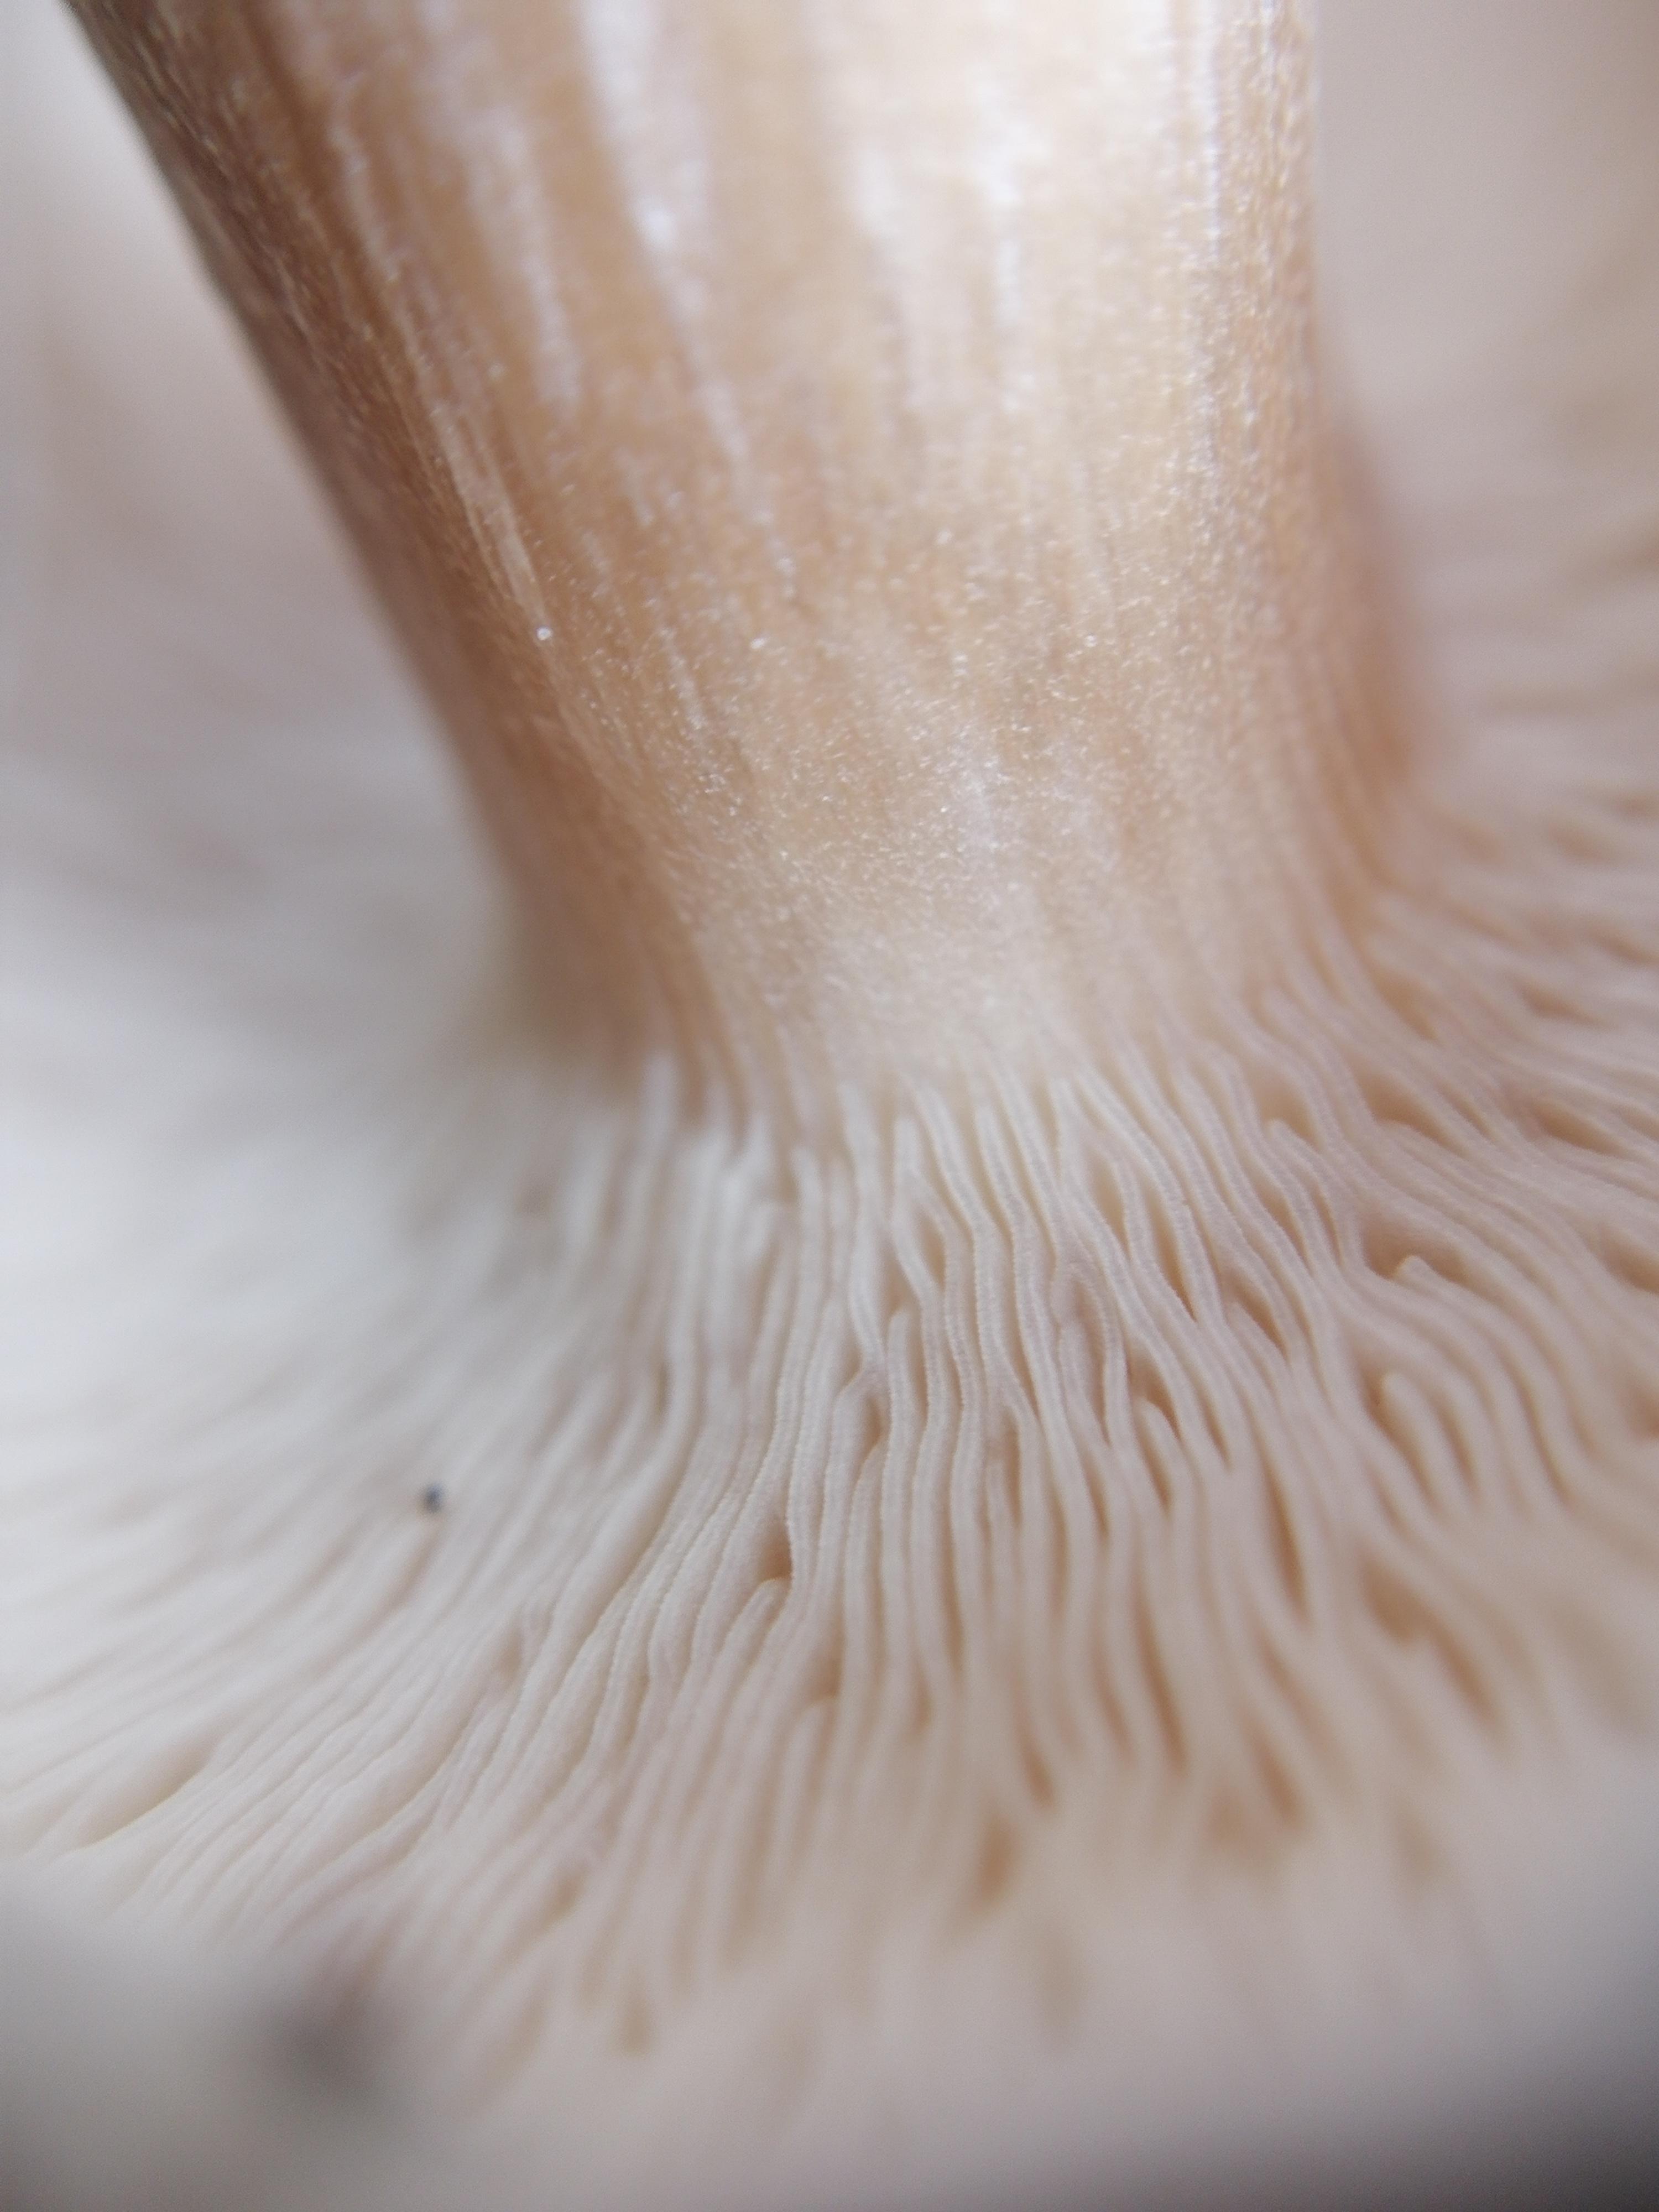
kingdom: Fungi
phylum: Basidiomycota
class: Agaricomycetes
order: Agaricales
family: Tricholomataceae
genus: Melanoleuca
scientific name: Melanoleuca
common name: munkehat
